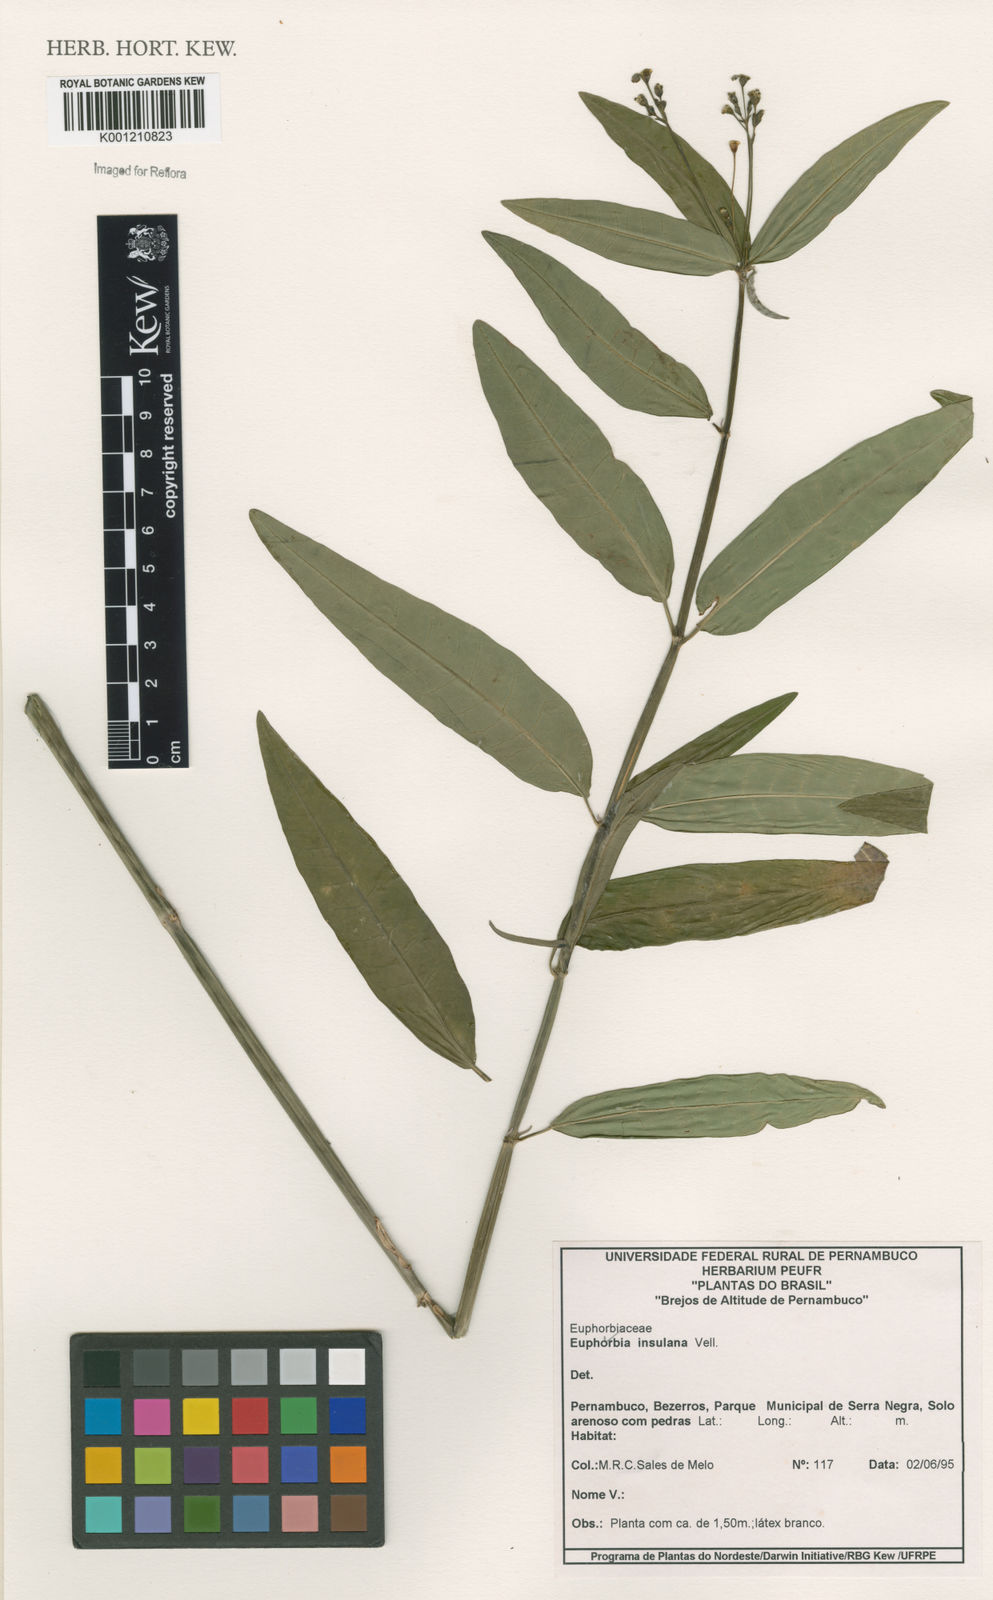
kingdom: Plantae
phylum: Tracheophyta
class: Magnoliopsida
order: Malpighiales
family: Euphorbiaceae
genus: Euphorbia
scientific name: Euphorbia insulana
